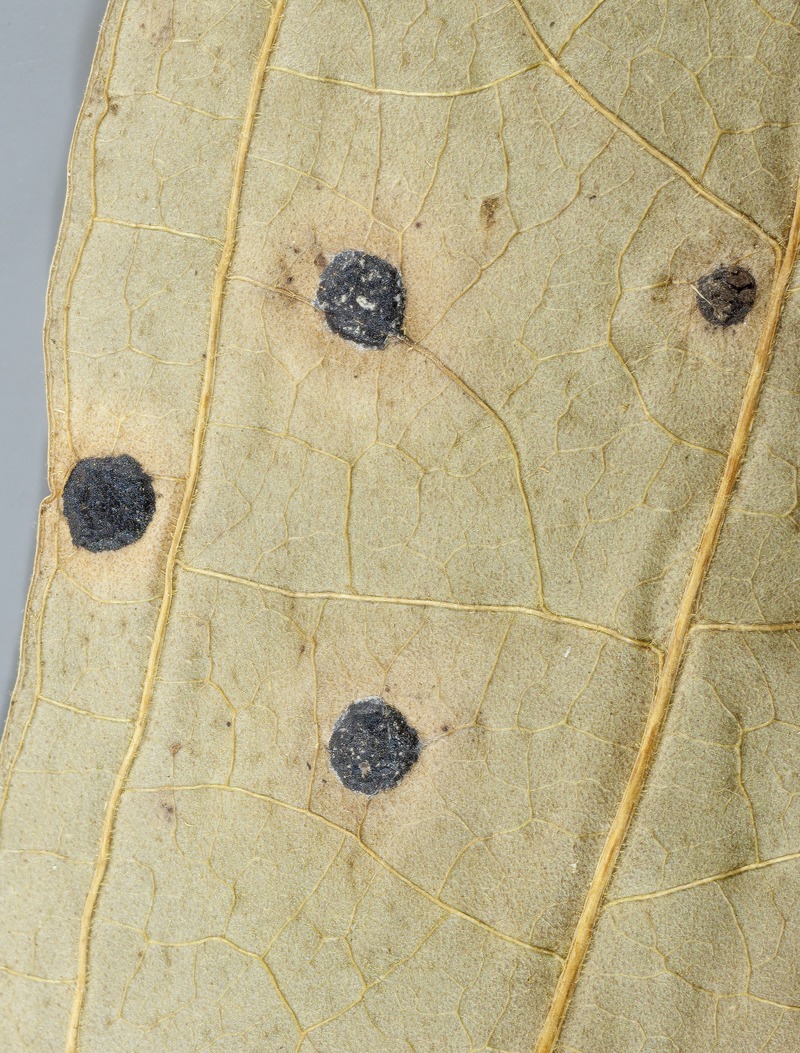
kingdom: Fungi
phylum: Ascomycota
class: Leotiomycetes
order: Helotiales
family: Helotiaceae
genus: Parencoelia
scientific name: Parencoelia andina
